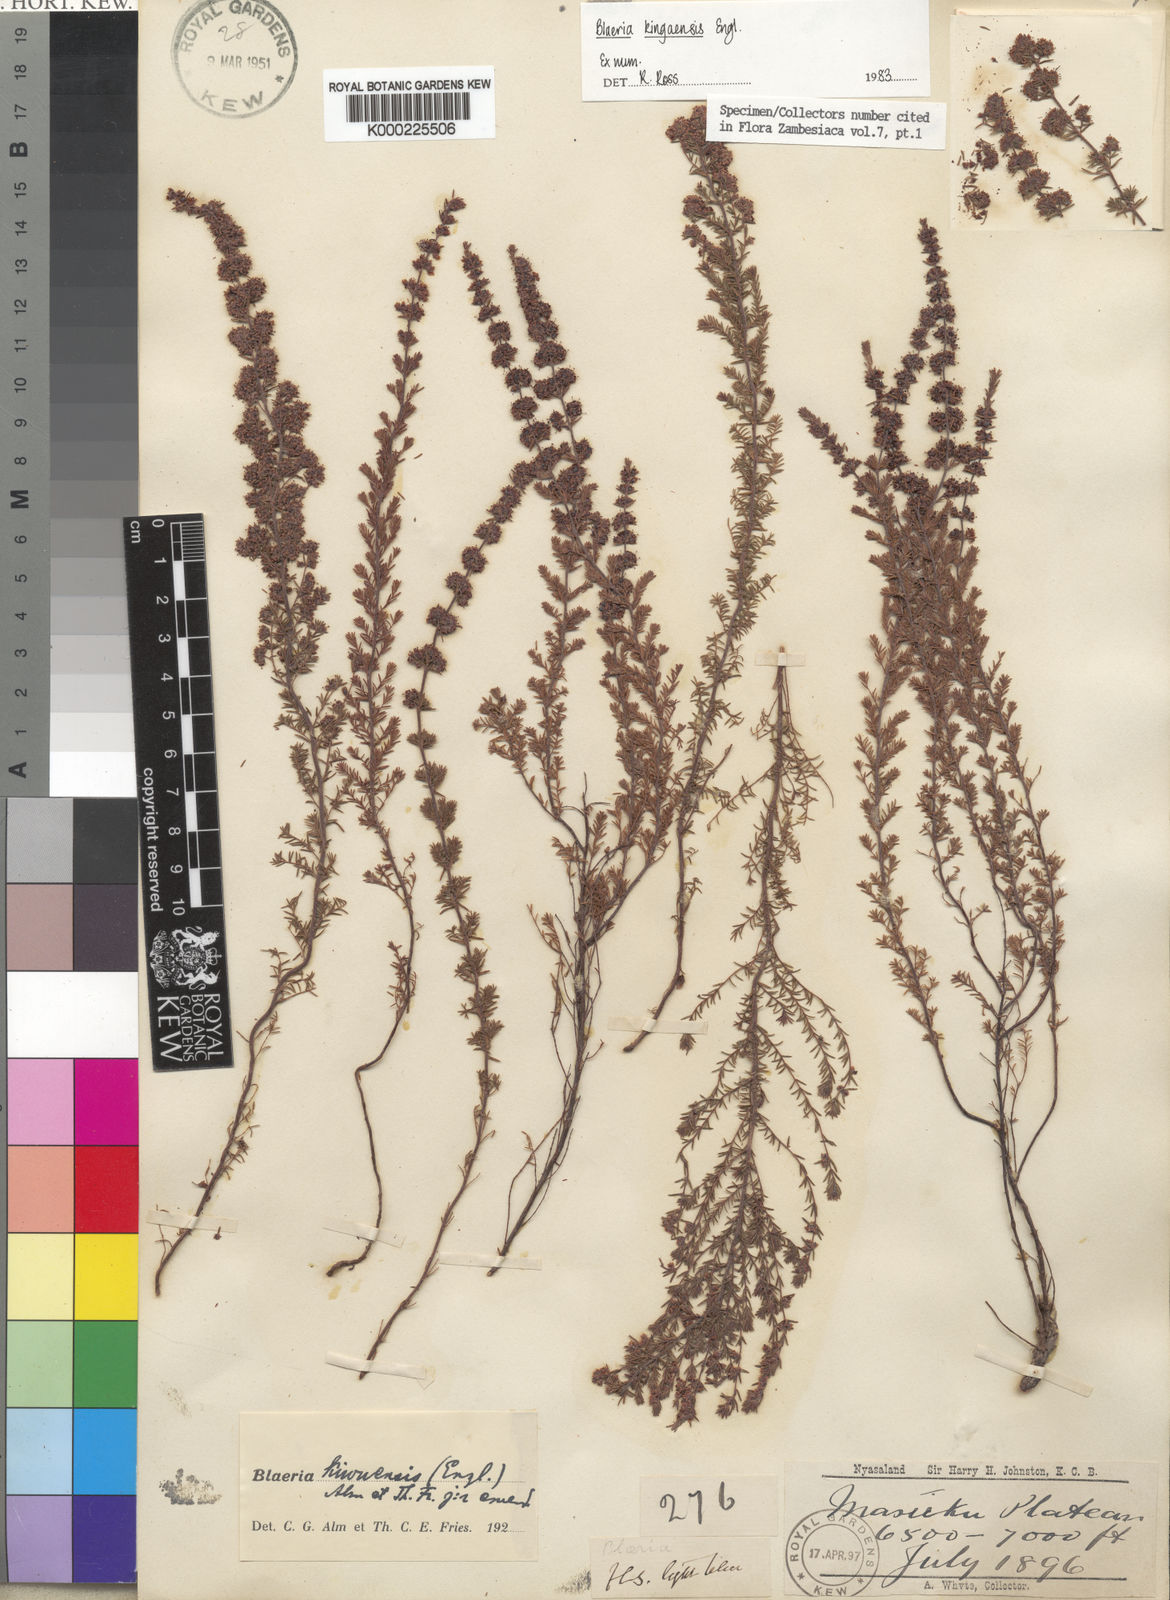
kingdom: Plantae
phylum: Tracheophyta
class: Magnoliopsida
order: Ericales
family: Ericaceae
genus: Erica
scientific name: Erica silvatica
